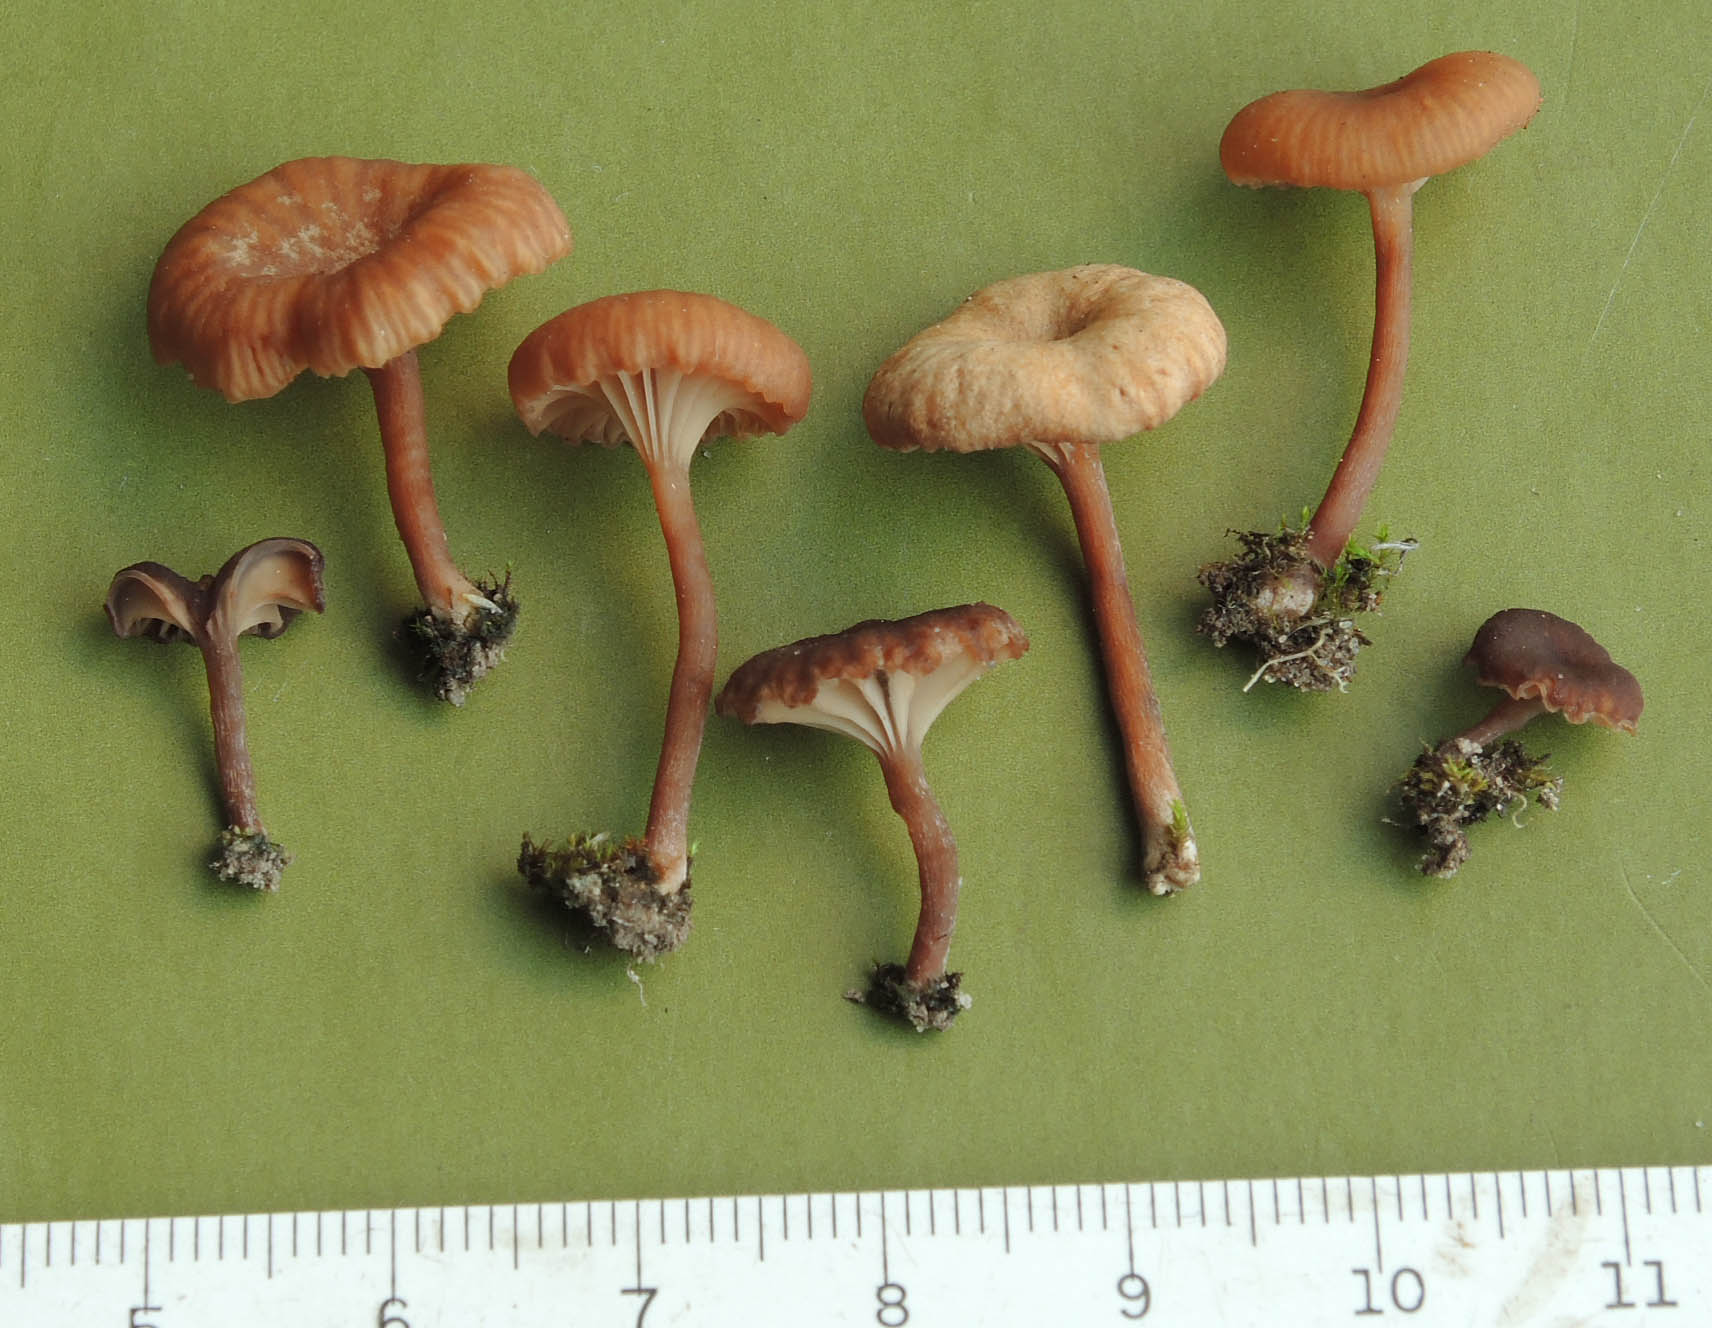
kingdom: Fungi
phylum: Basidiomycota
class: Agaricomycetes
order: Agaricales
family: Tricholomataceae
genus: Omphalina
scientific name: Omphalina pyxidata
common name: rødbrun navlehat
